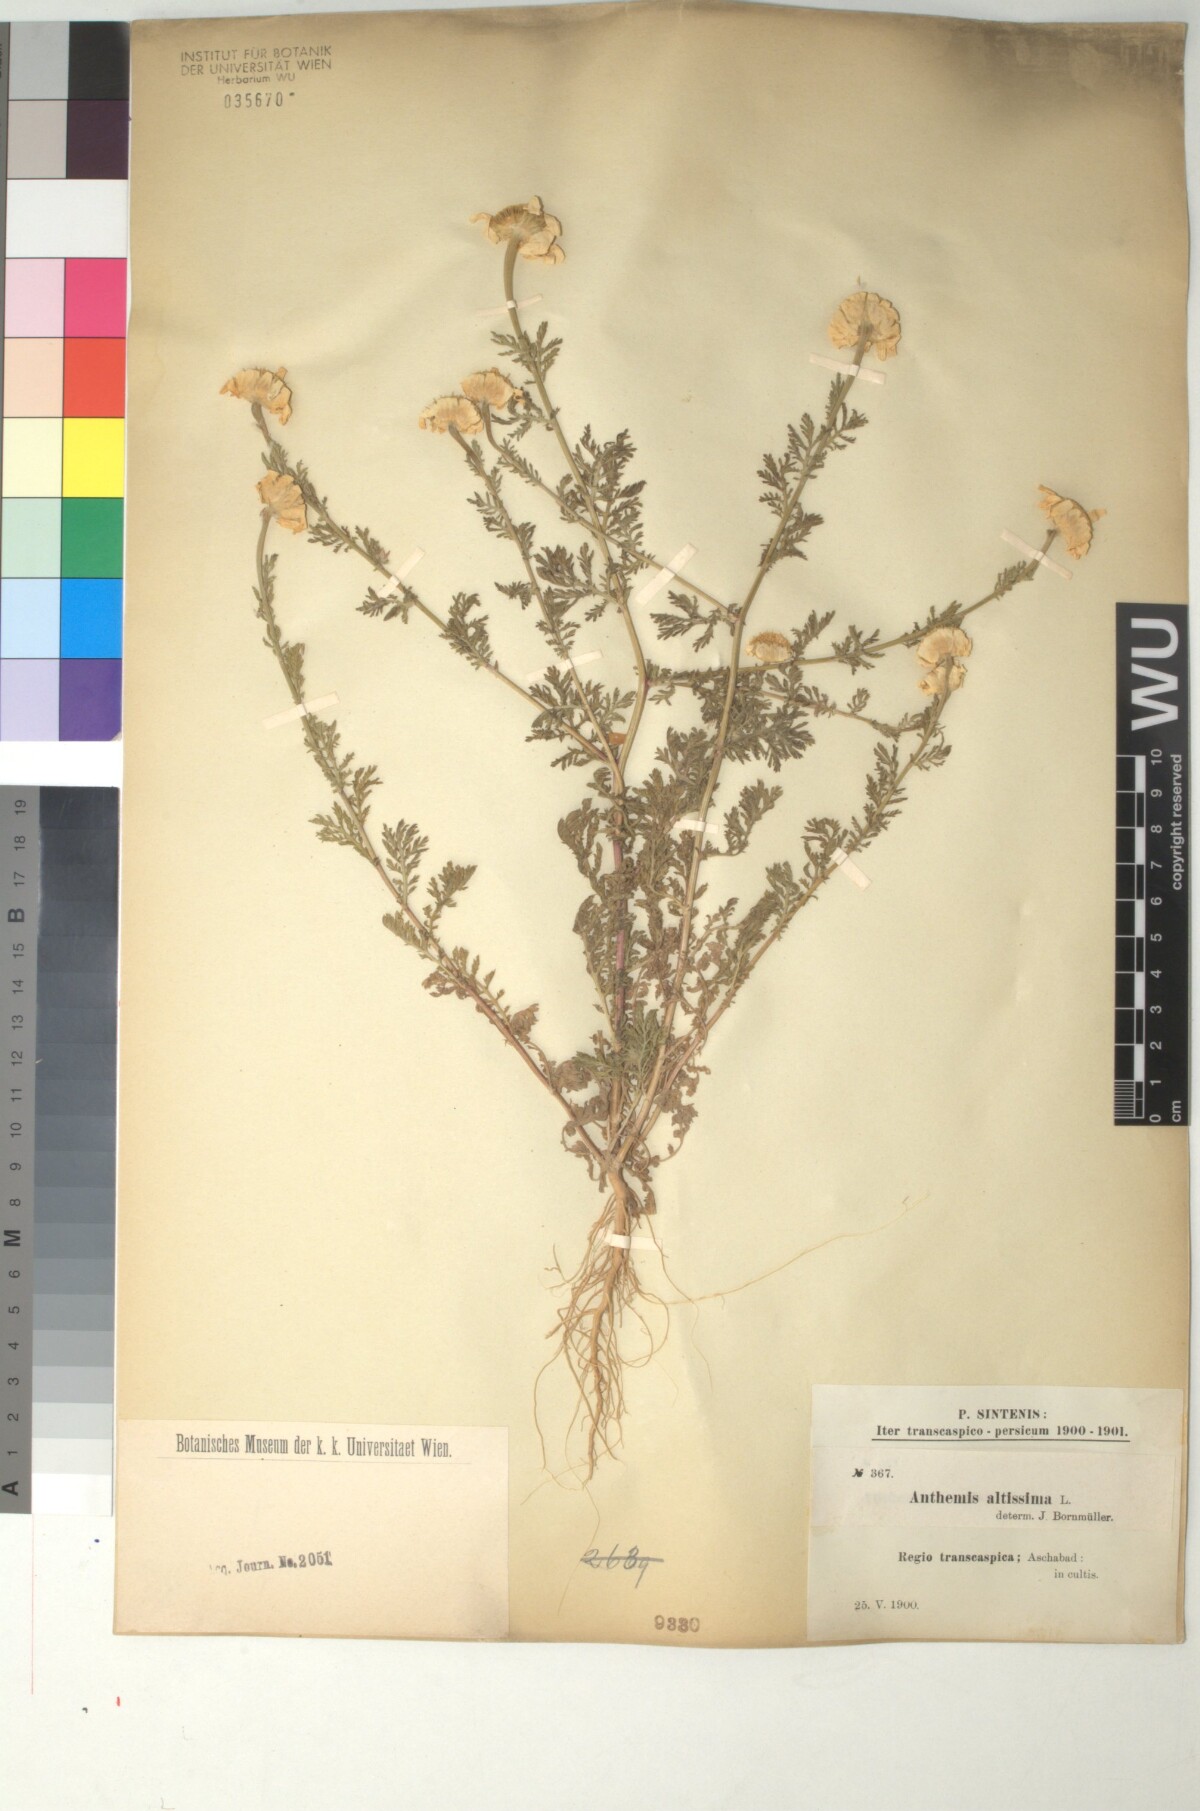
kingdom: Plantae
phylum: Tracheophyta
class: Magnoliopsida
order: Asterales
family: Asteraceae
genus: Cota
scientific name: Cota altissima
